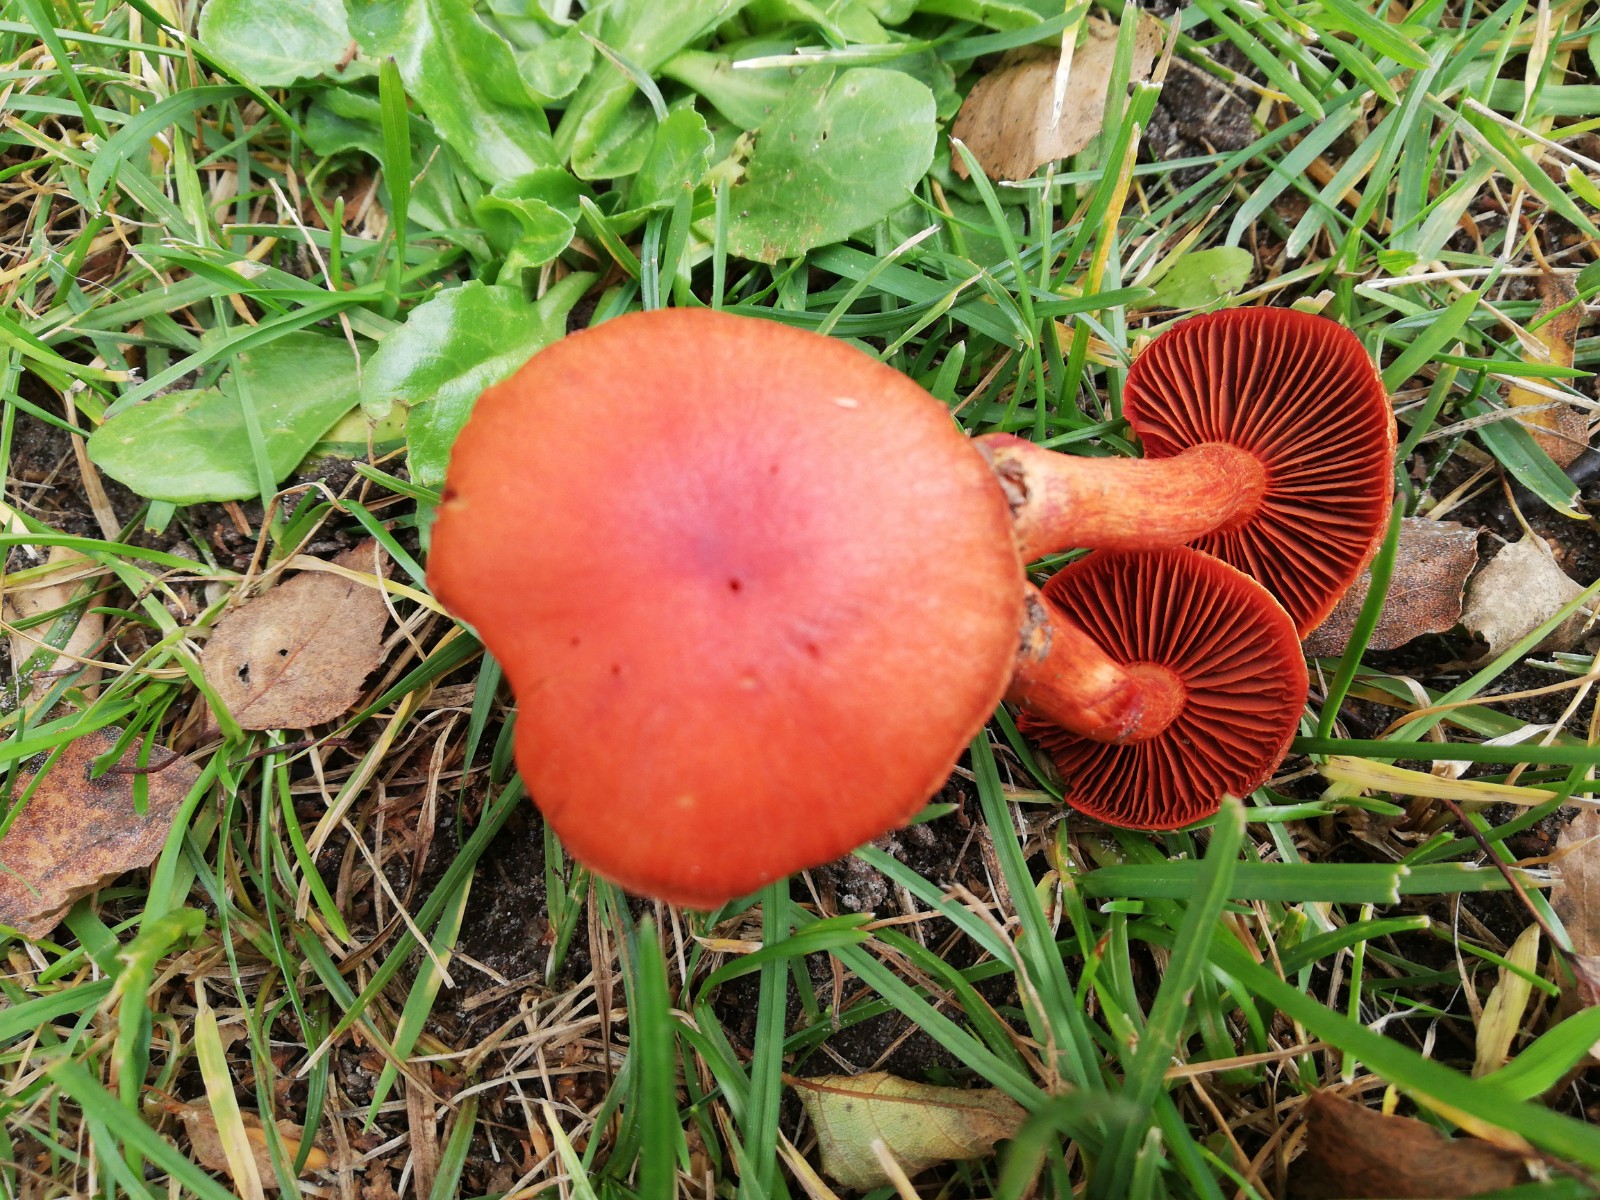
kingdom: Fungi
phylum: Basidiomycota
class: Agaricomycetes
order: Agaricales
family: Cortinariaceae
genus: Cortinarius
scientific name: Cortinarius
